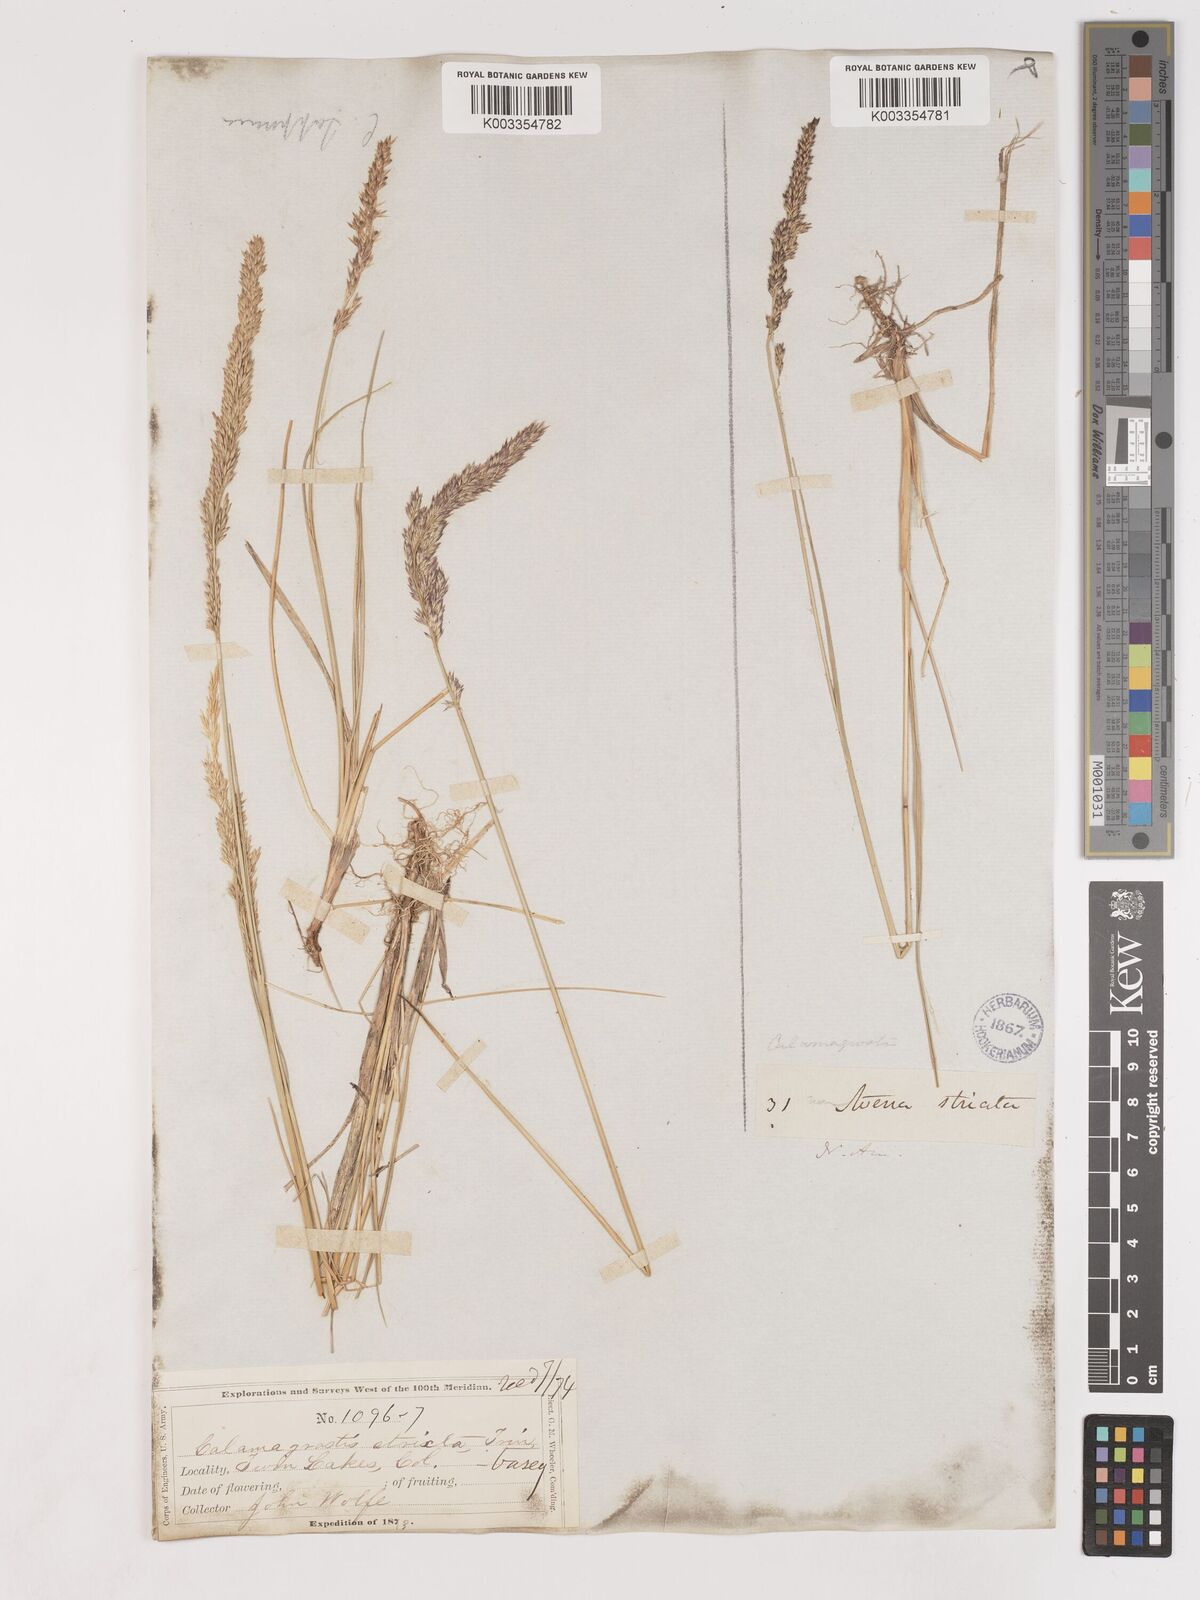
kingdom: Plantae
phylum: Tracheophyta
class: Liliopsida
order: Poales
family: Poaceae
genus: Cinnagrostis
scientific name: Cinnagrostis recta
